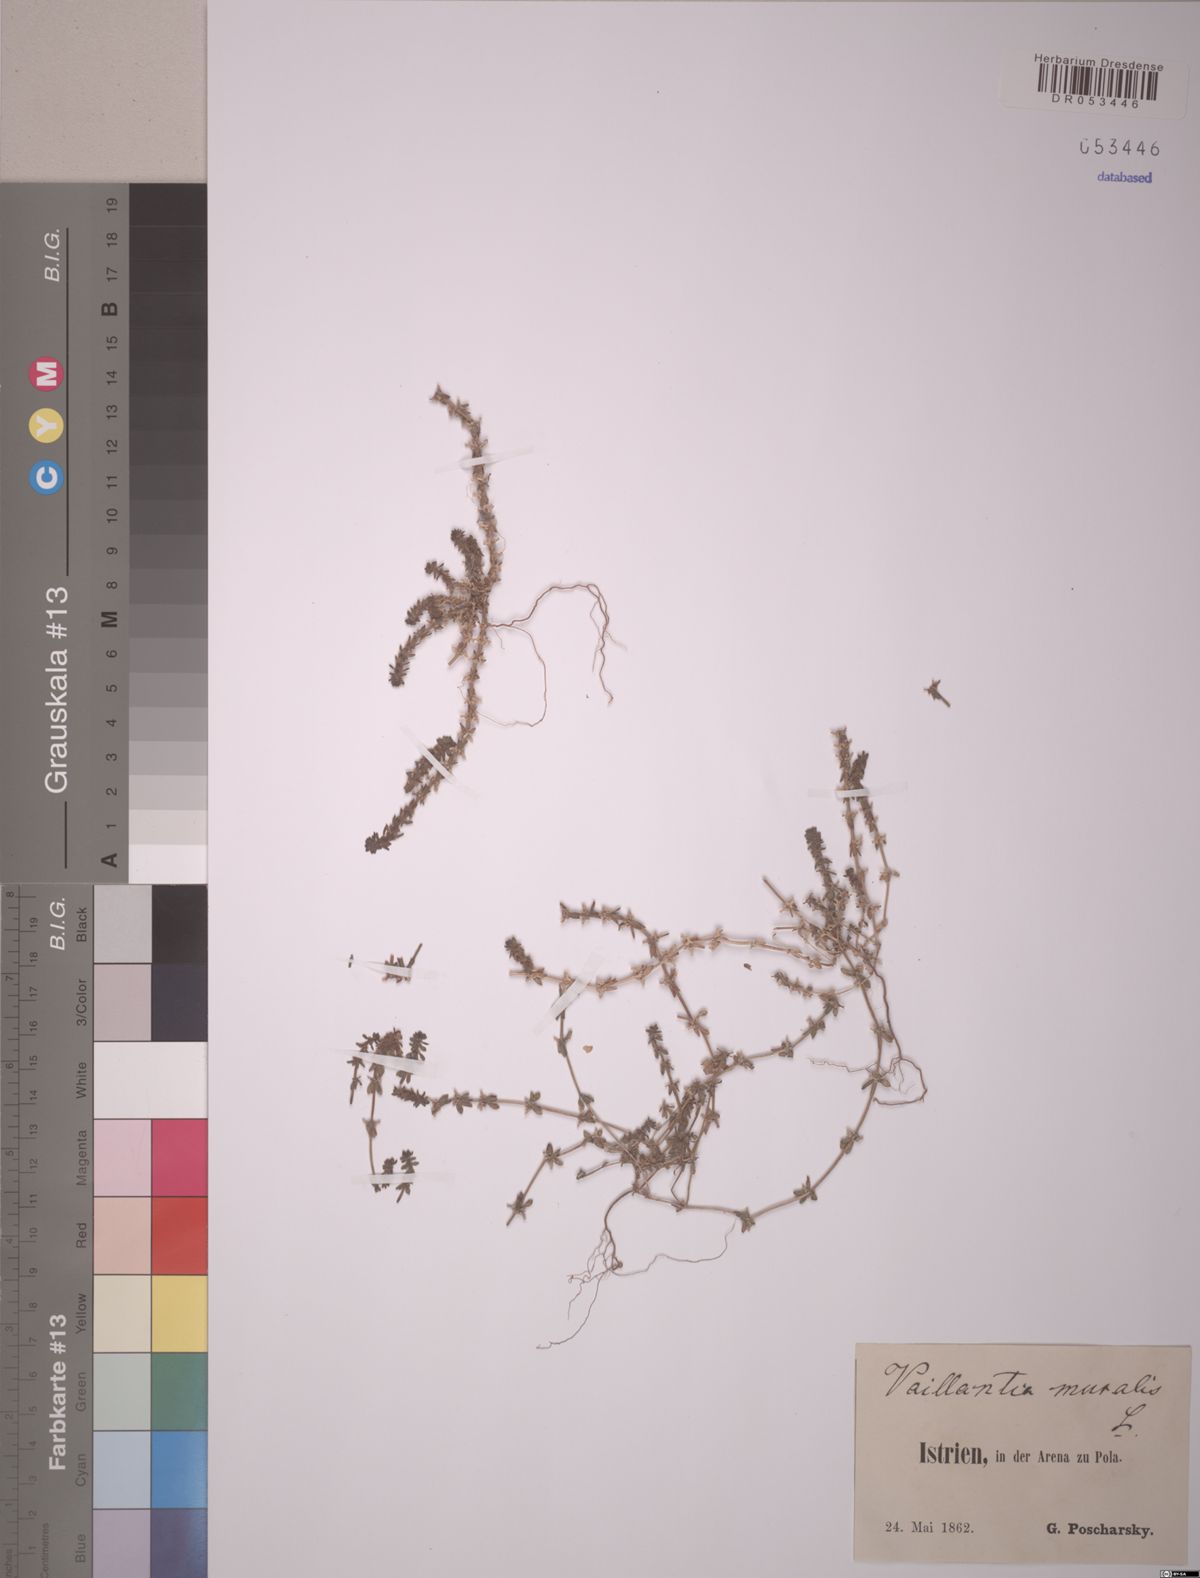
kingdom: Plantae
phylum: Tracheophyta
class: Magnoliopsida
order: Gentianales
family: Rubiaceae
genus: Valantia
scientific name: Valantia muralis
